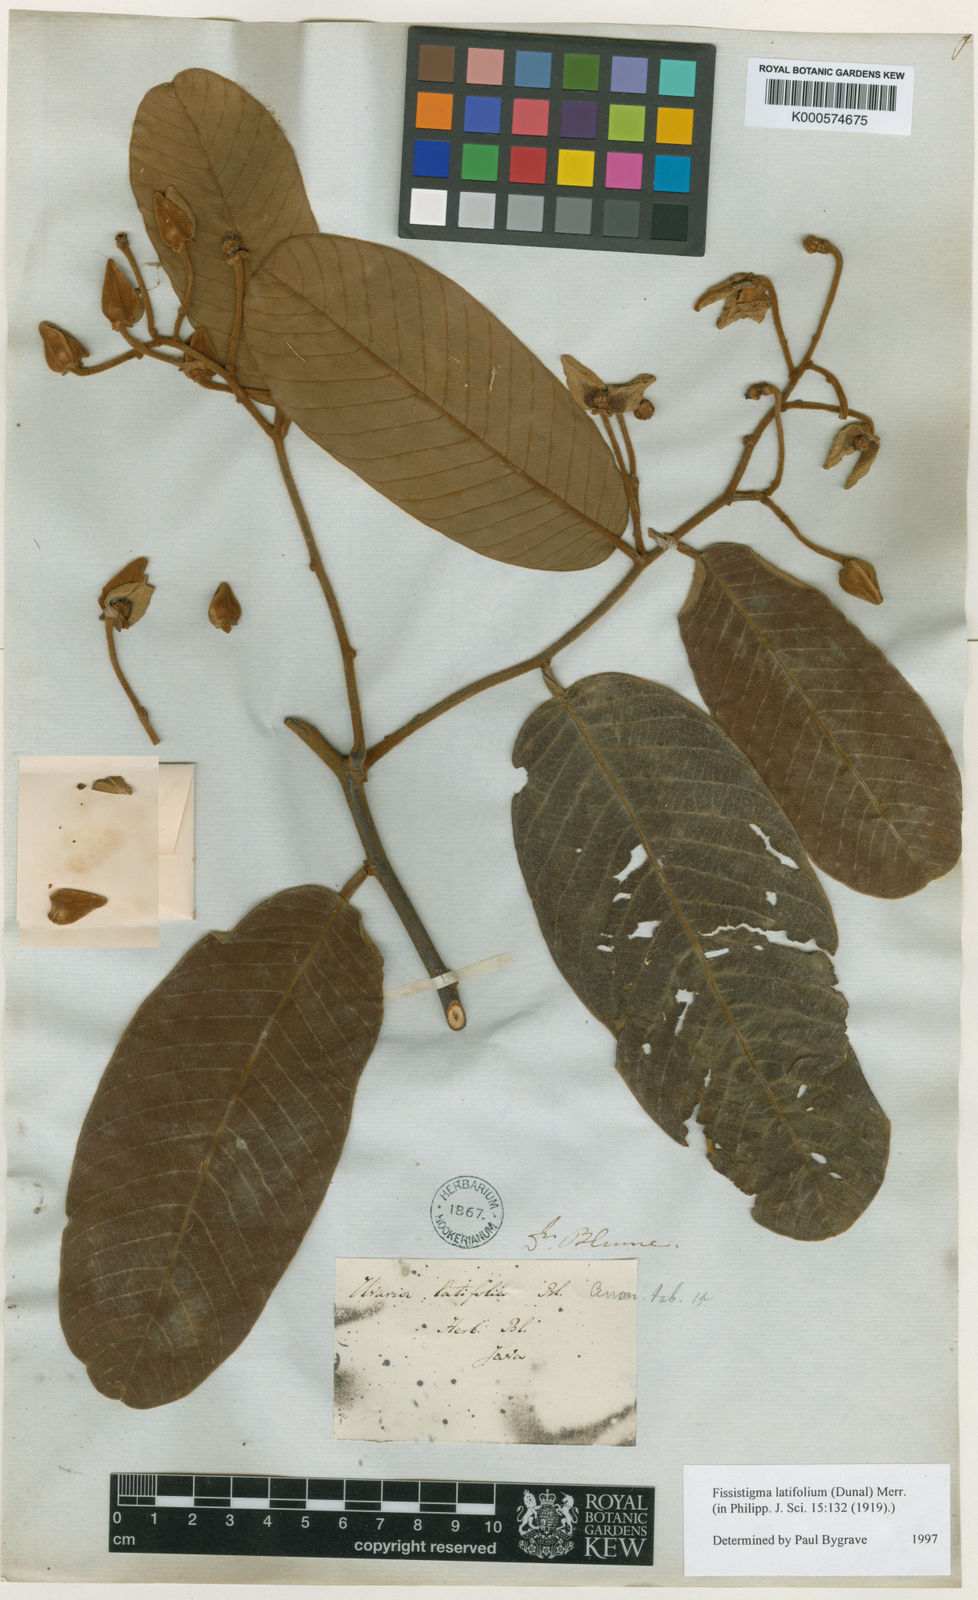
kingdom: Plantae
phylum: Tracheophyta
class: Magnoliopsida
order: Magnoliales
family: Annonaceae
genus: Fissistigma
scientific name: Fissistigma latifolium
